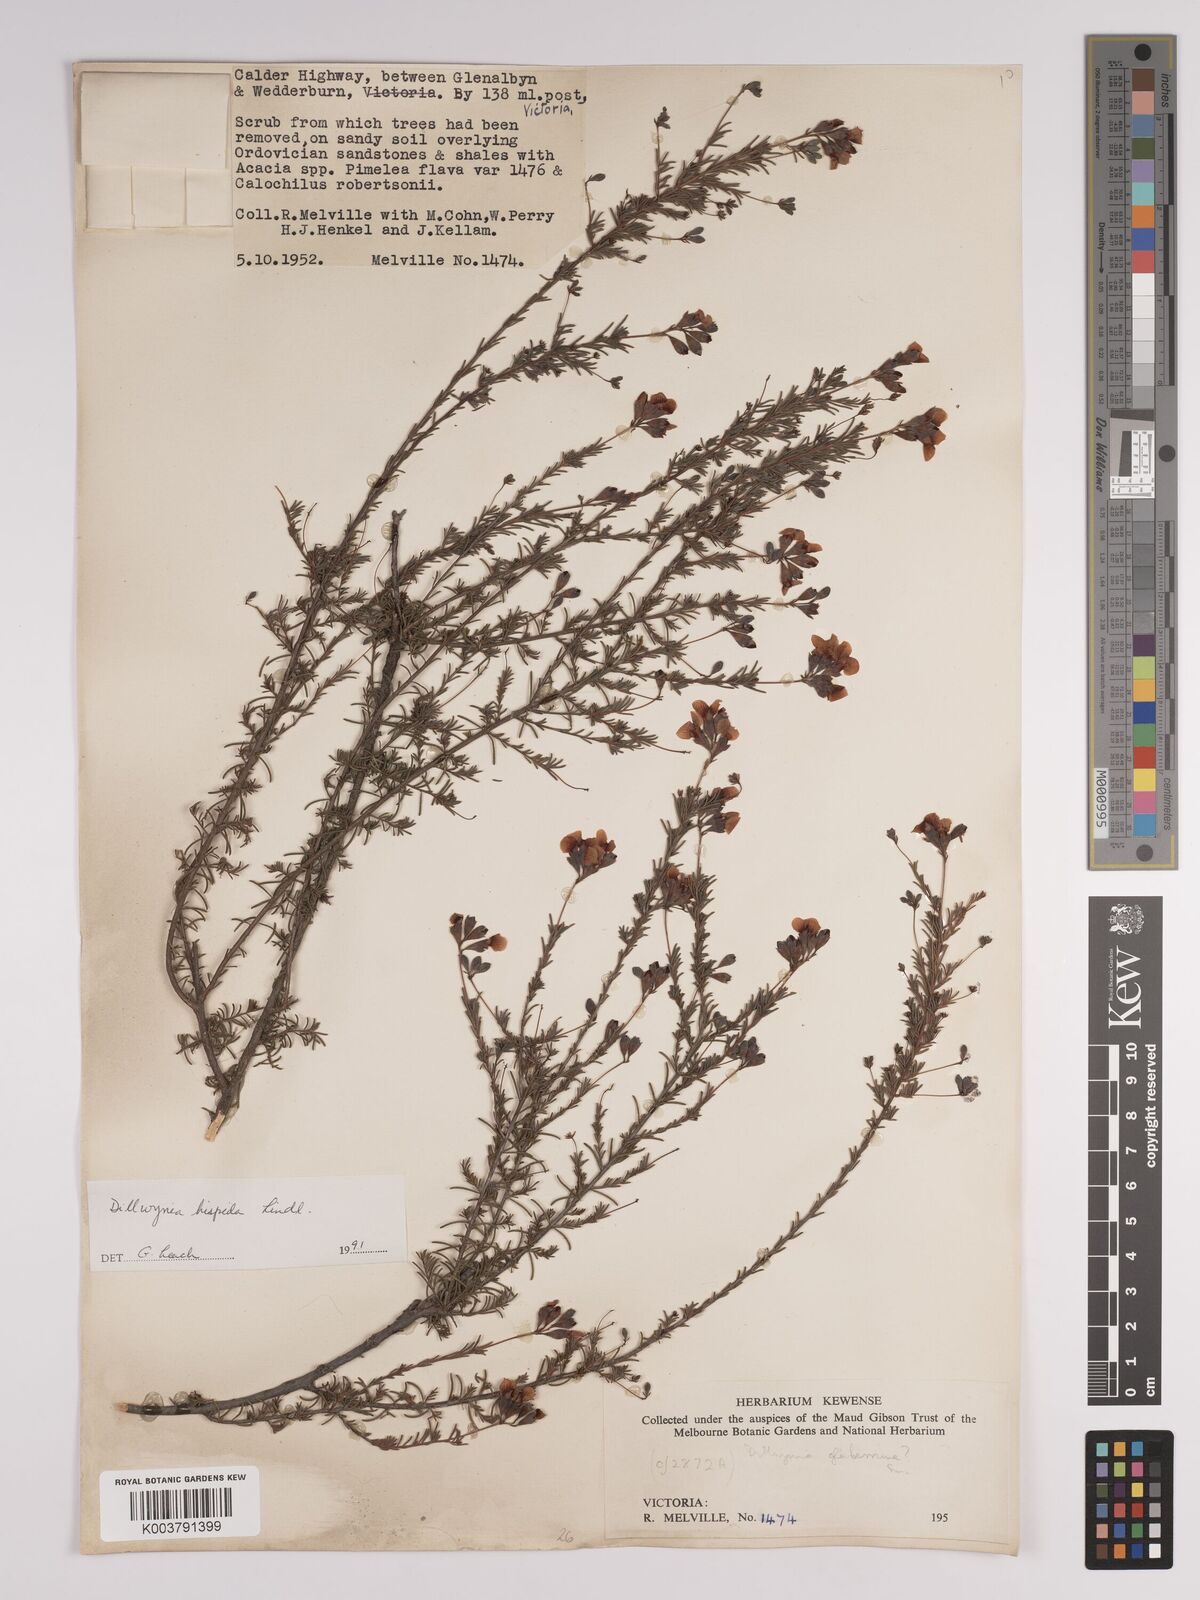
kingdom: Plantae
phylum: Tracheophyta
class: Magnoliopsida
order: Fabales
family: Fabaceae
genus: Dillwynia
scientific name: Dillwynia hispida
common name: Red parrot-pea
